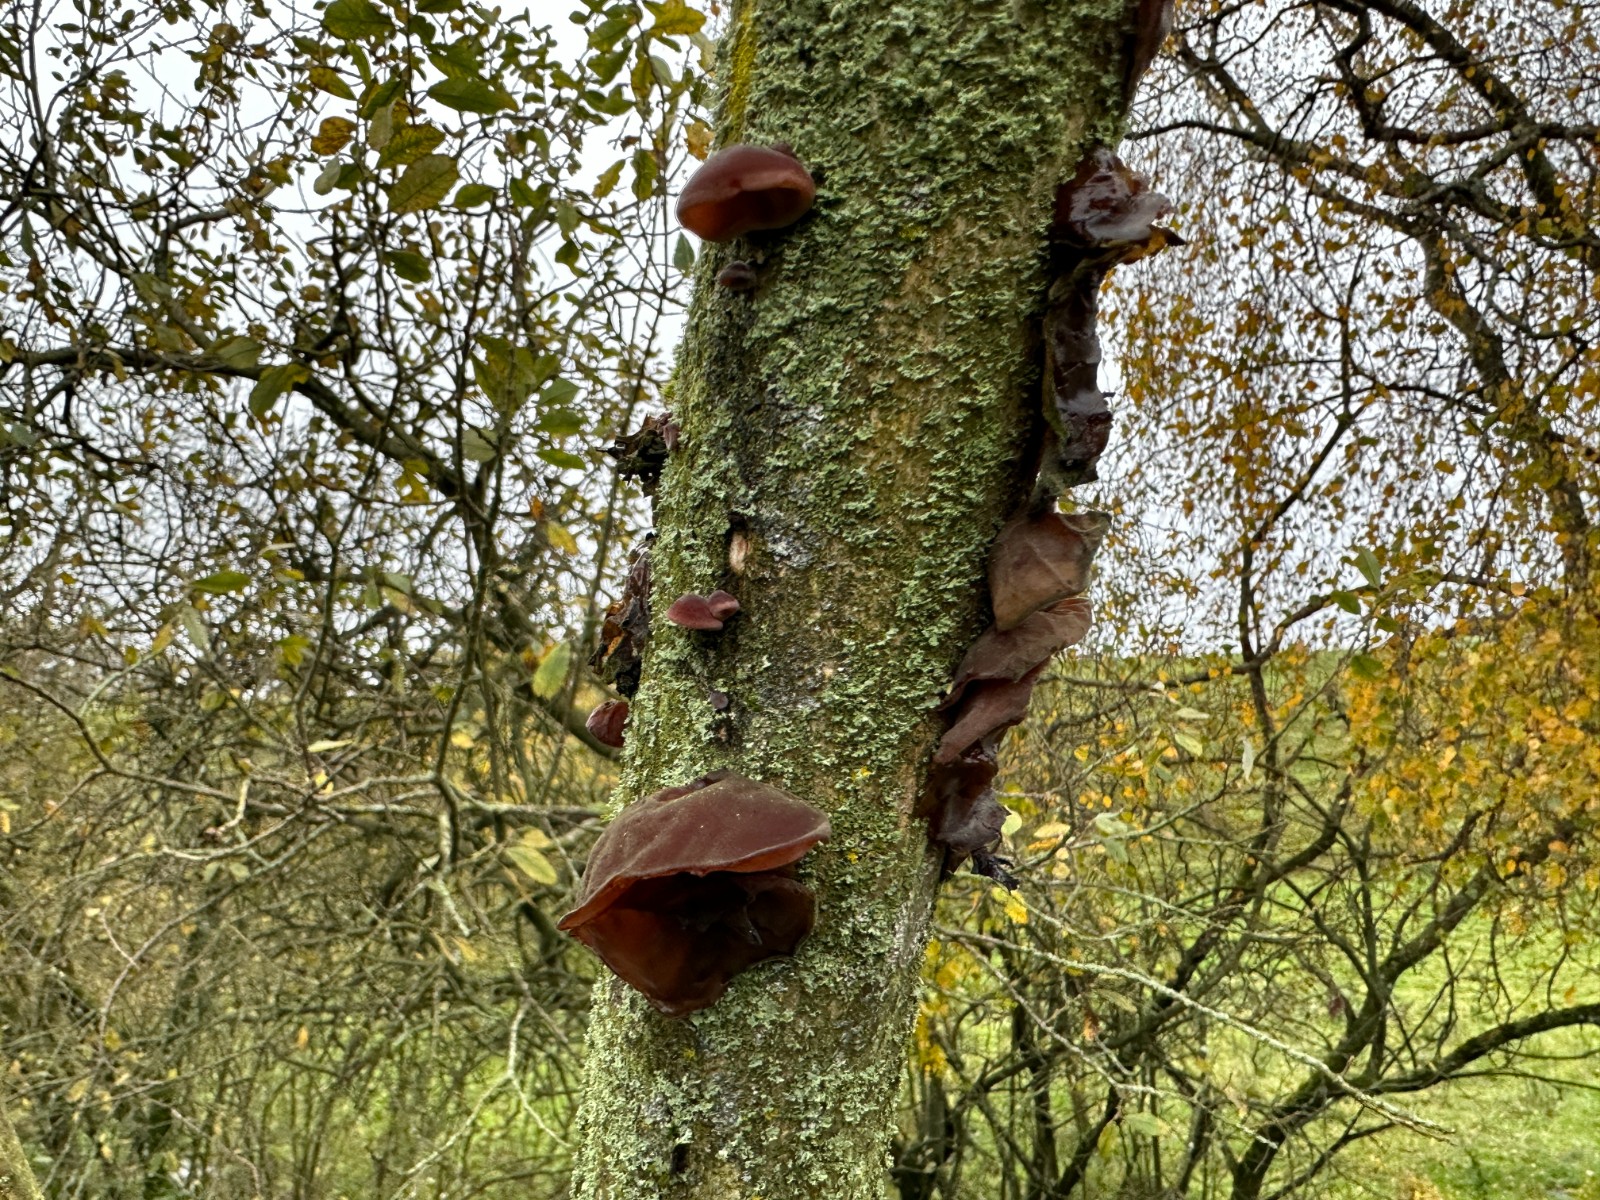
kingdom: Fungi
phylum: Basidiomycota
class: Agaricomycetes
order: Auriculariales
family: Auriculariaceae
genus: Auricularia
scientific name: Auricularia auricula-judae
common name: almindelig judasøre
